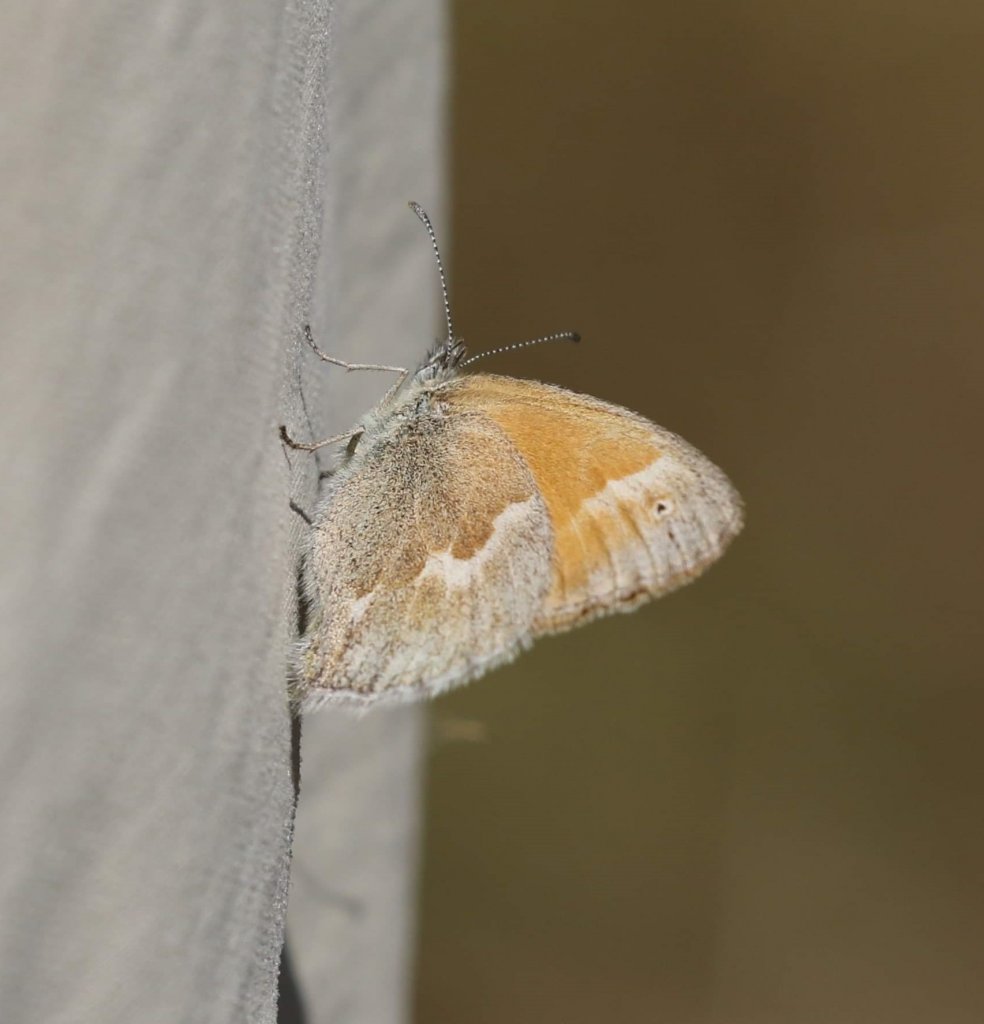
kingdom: Animalia
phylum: Arthropoda
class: Insecta
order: Lepidoptera
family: Nymphalidae
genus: Coenonympha
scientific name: Coenonympha tullia
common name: Large Heath
